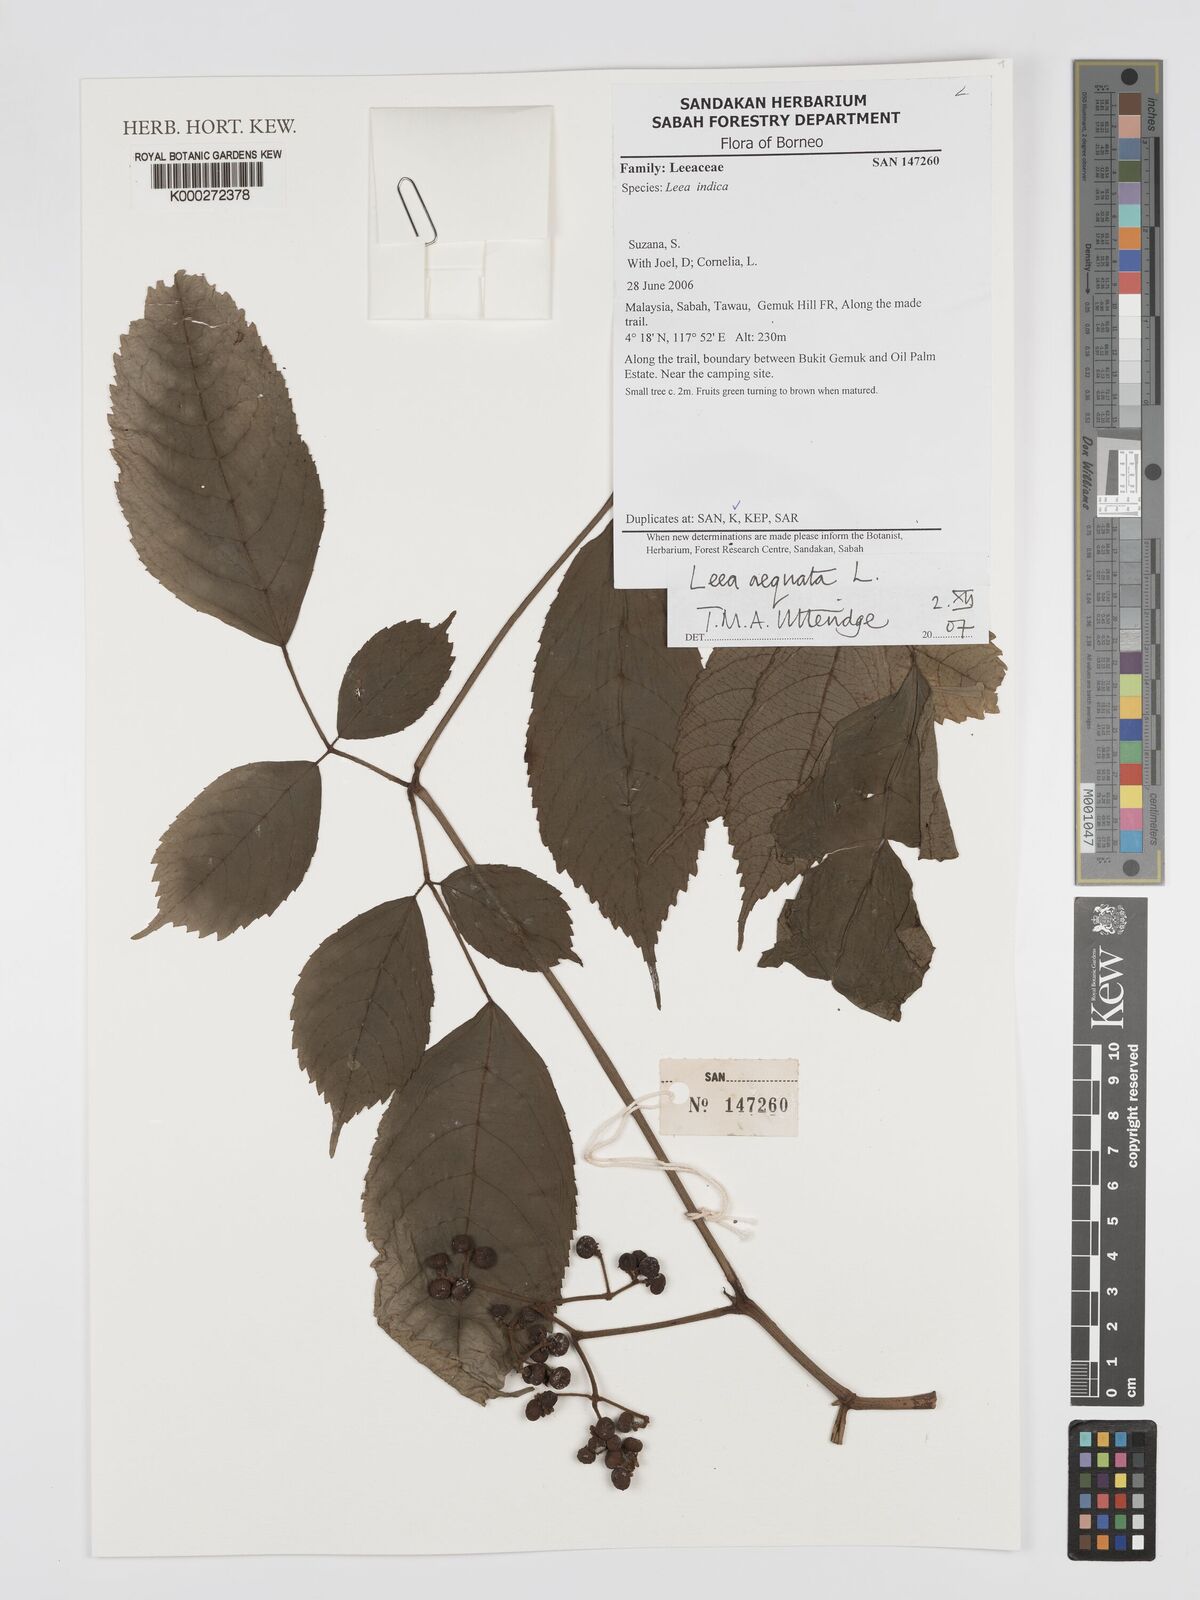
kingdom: Plantae
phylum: Tracheophyta
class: Magnoliopsida
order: Vitales
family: Vitaceae
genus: Leea
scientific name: Leea aequata
